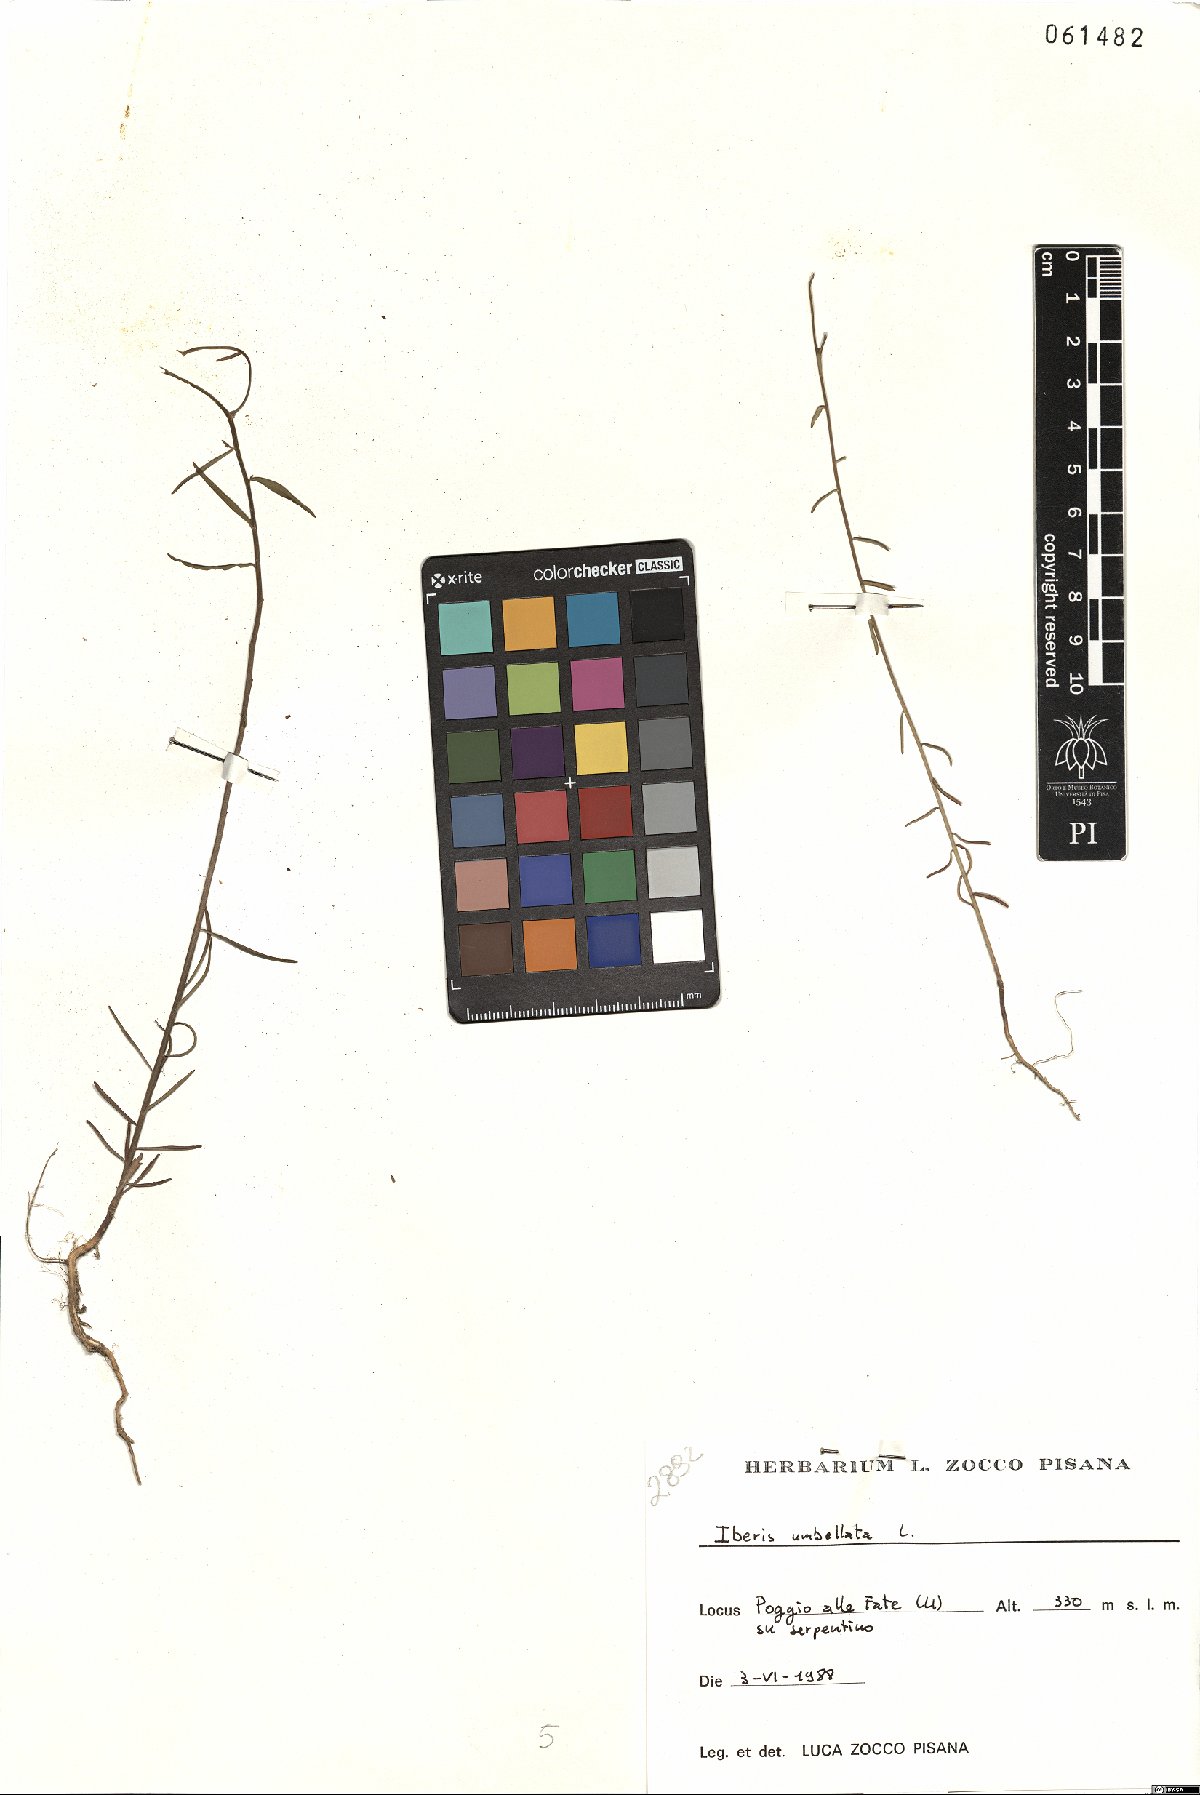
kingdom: Plantae
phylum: Tracheophyta
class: Magnoliopsida
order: Brassicales
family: Brassicaceae
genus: Iberis
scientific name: Iberis umbellata
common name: Globe candytuft
